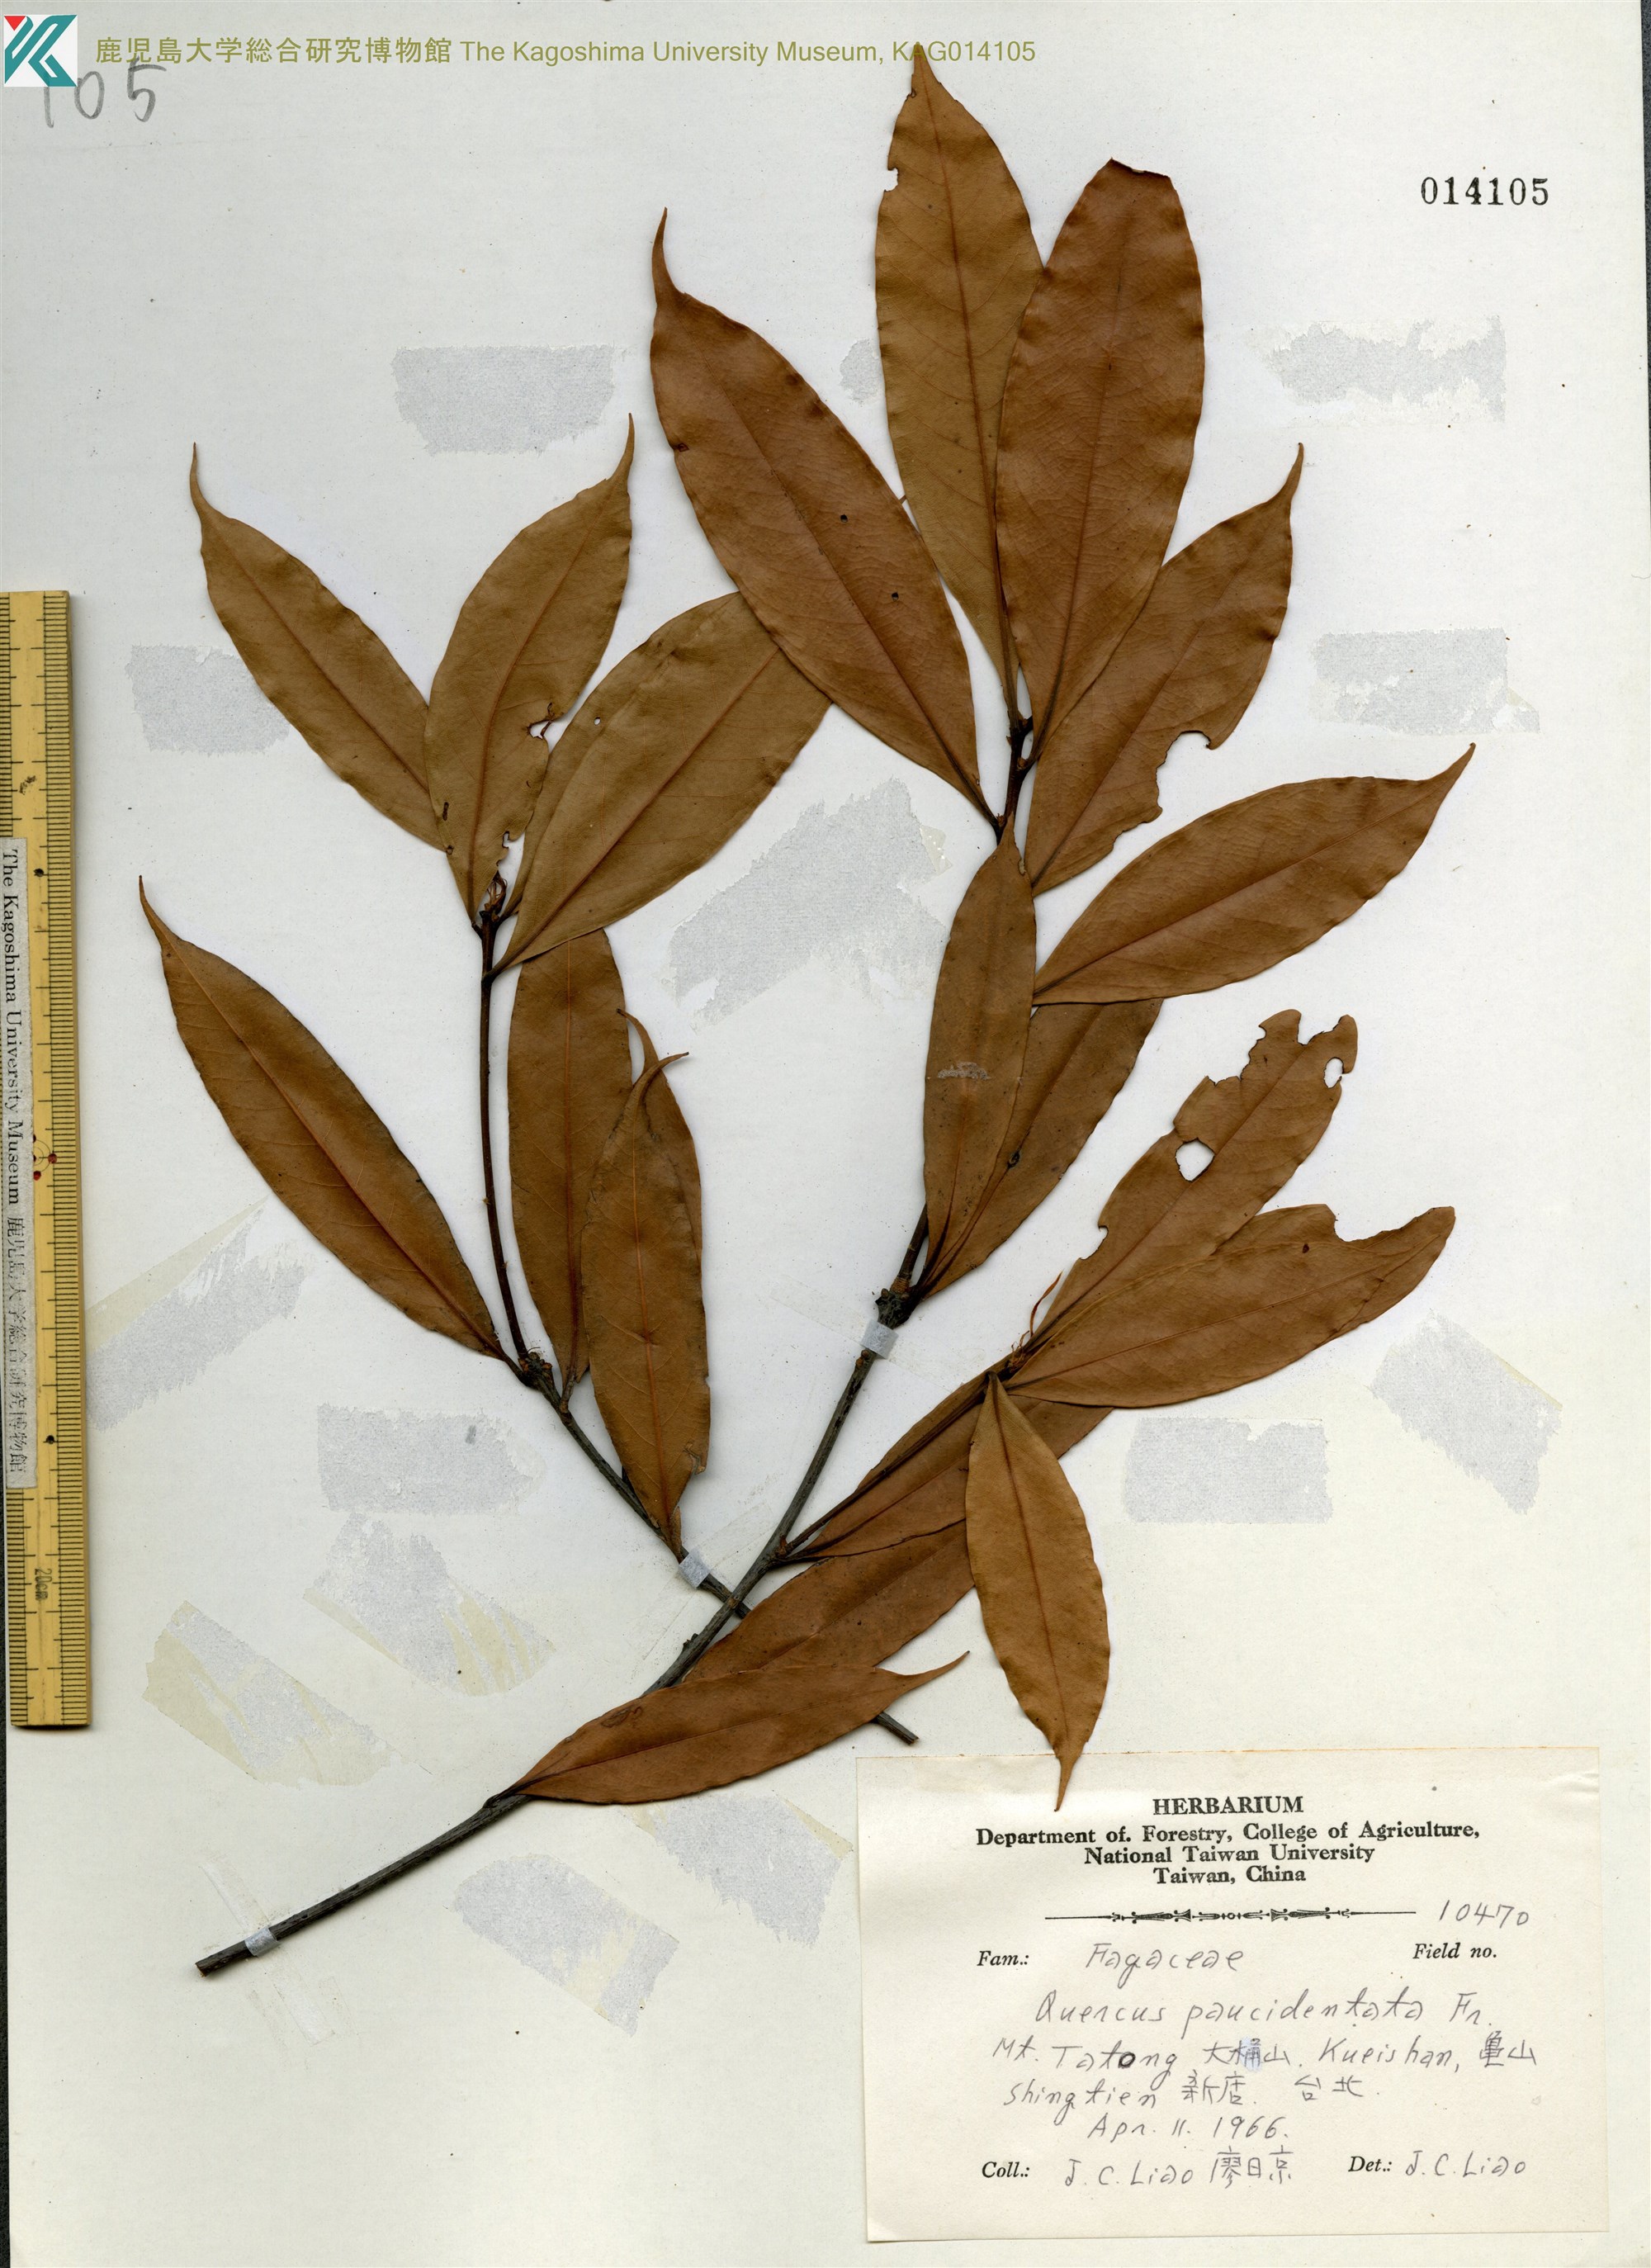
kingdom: Plantae
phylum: Tracheophyta
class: Magnoliopsida
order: Fagales
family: Fagaceae
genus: Quercus
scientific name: Quercus sessilifolia
